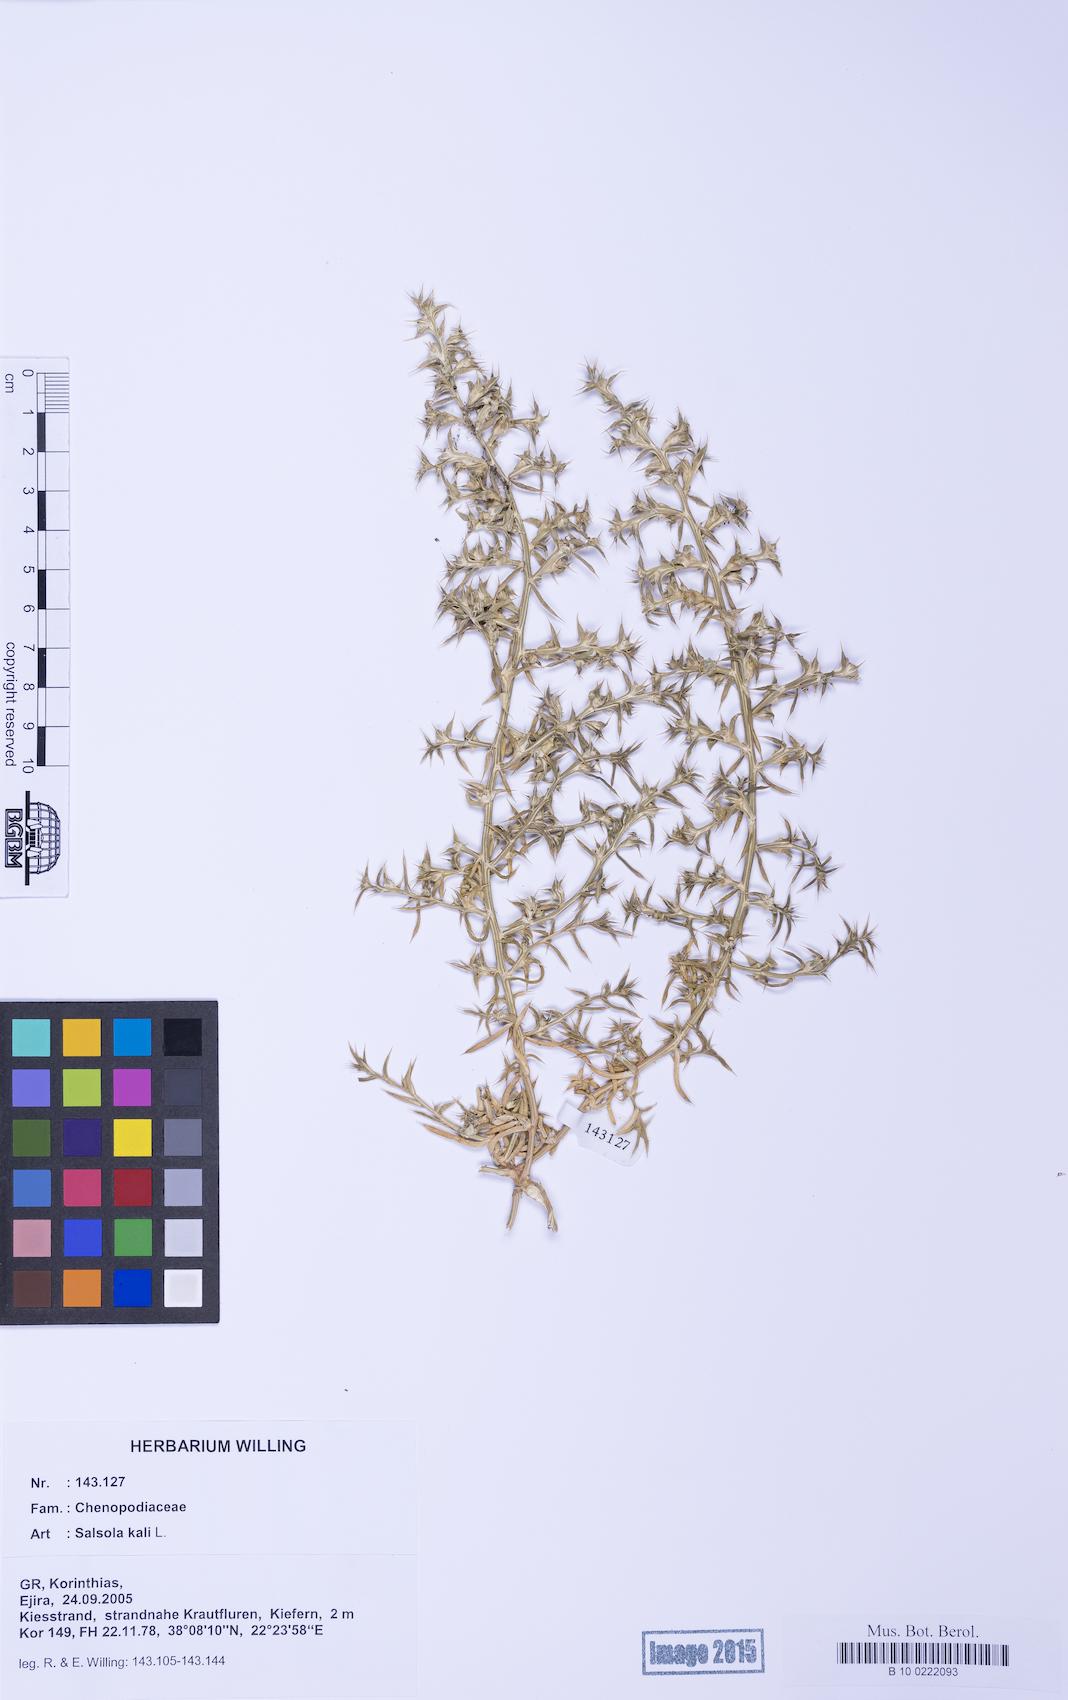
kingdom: Plantae
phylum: Tracheophyta
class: Magnoliopsida
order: Caryophyllales
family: Amaranthaceae
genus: Salsola
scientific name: Salsola kali
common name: Saltwort
